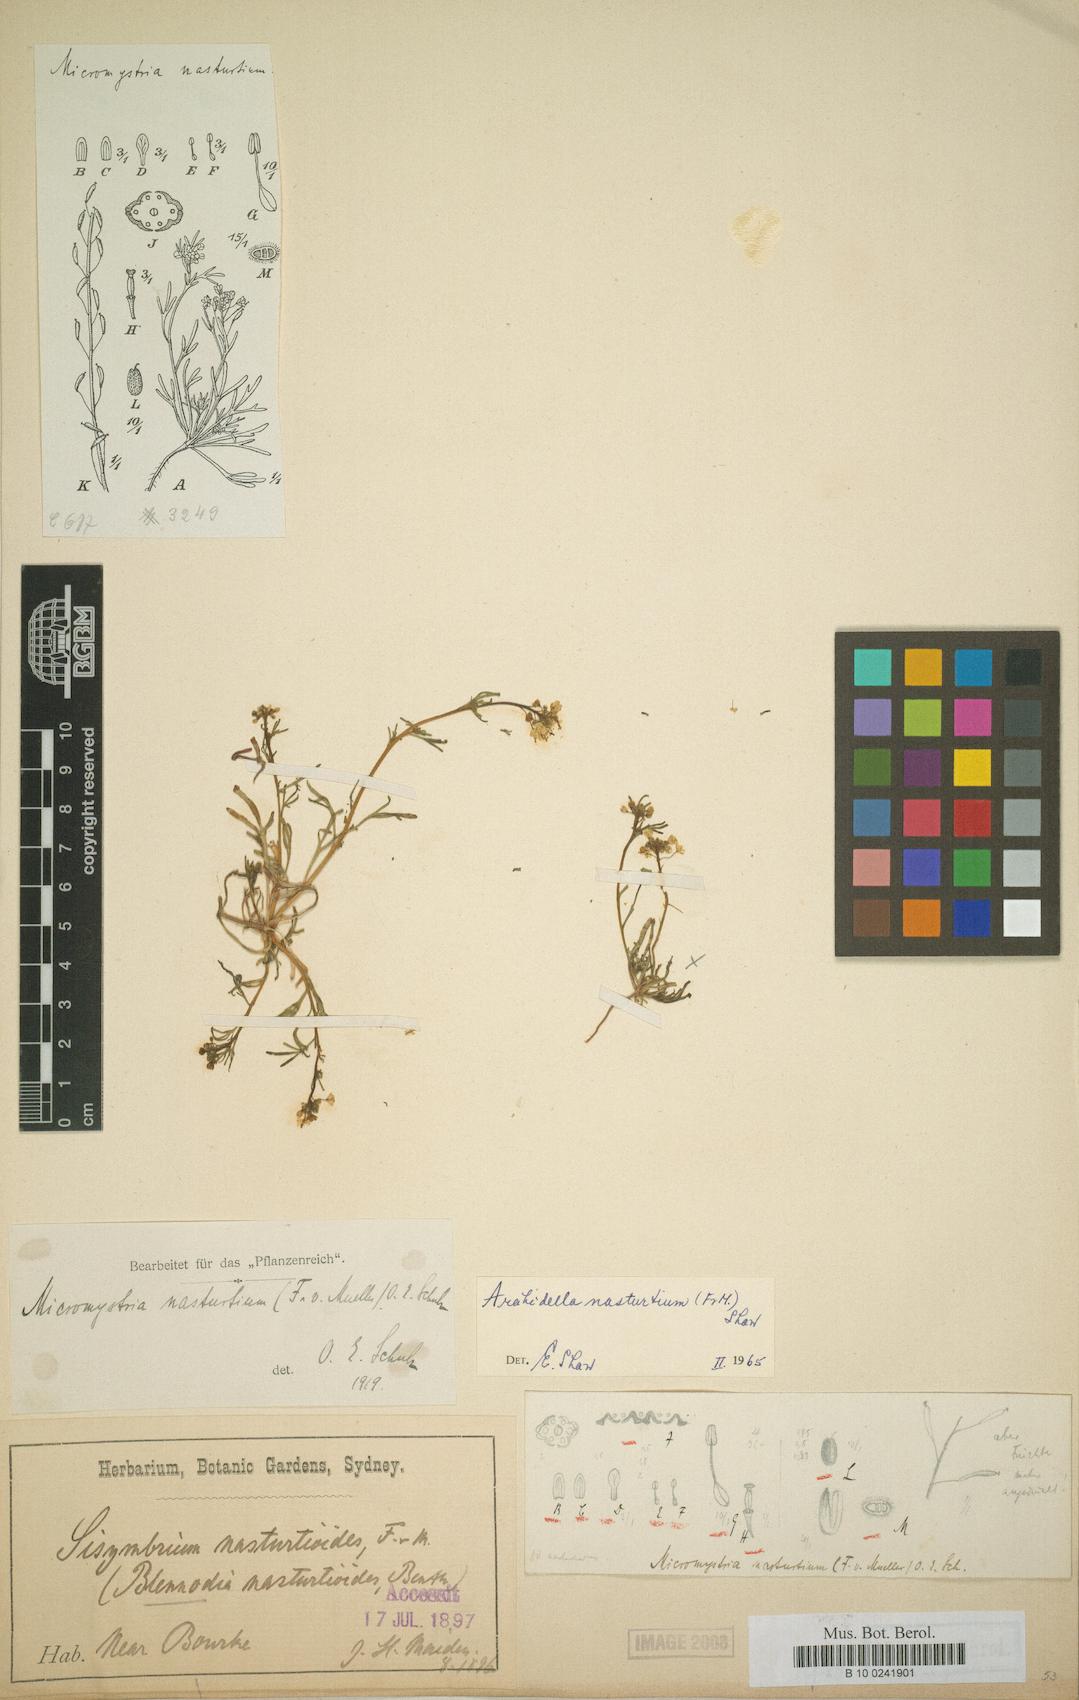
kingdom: Plantae
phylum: Tracheophyta
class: Magnoliopsida
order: Brassicales
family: Brassicaceae
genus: Arabidella
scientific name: Arabidella nasturtium
